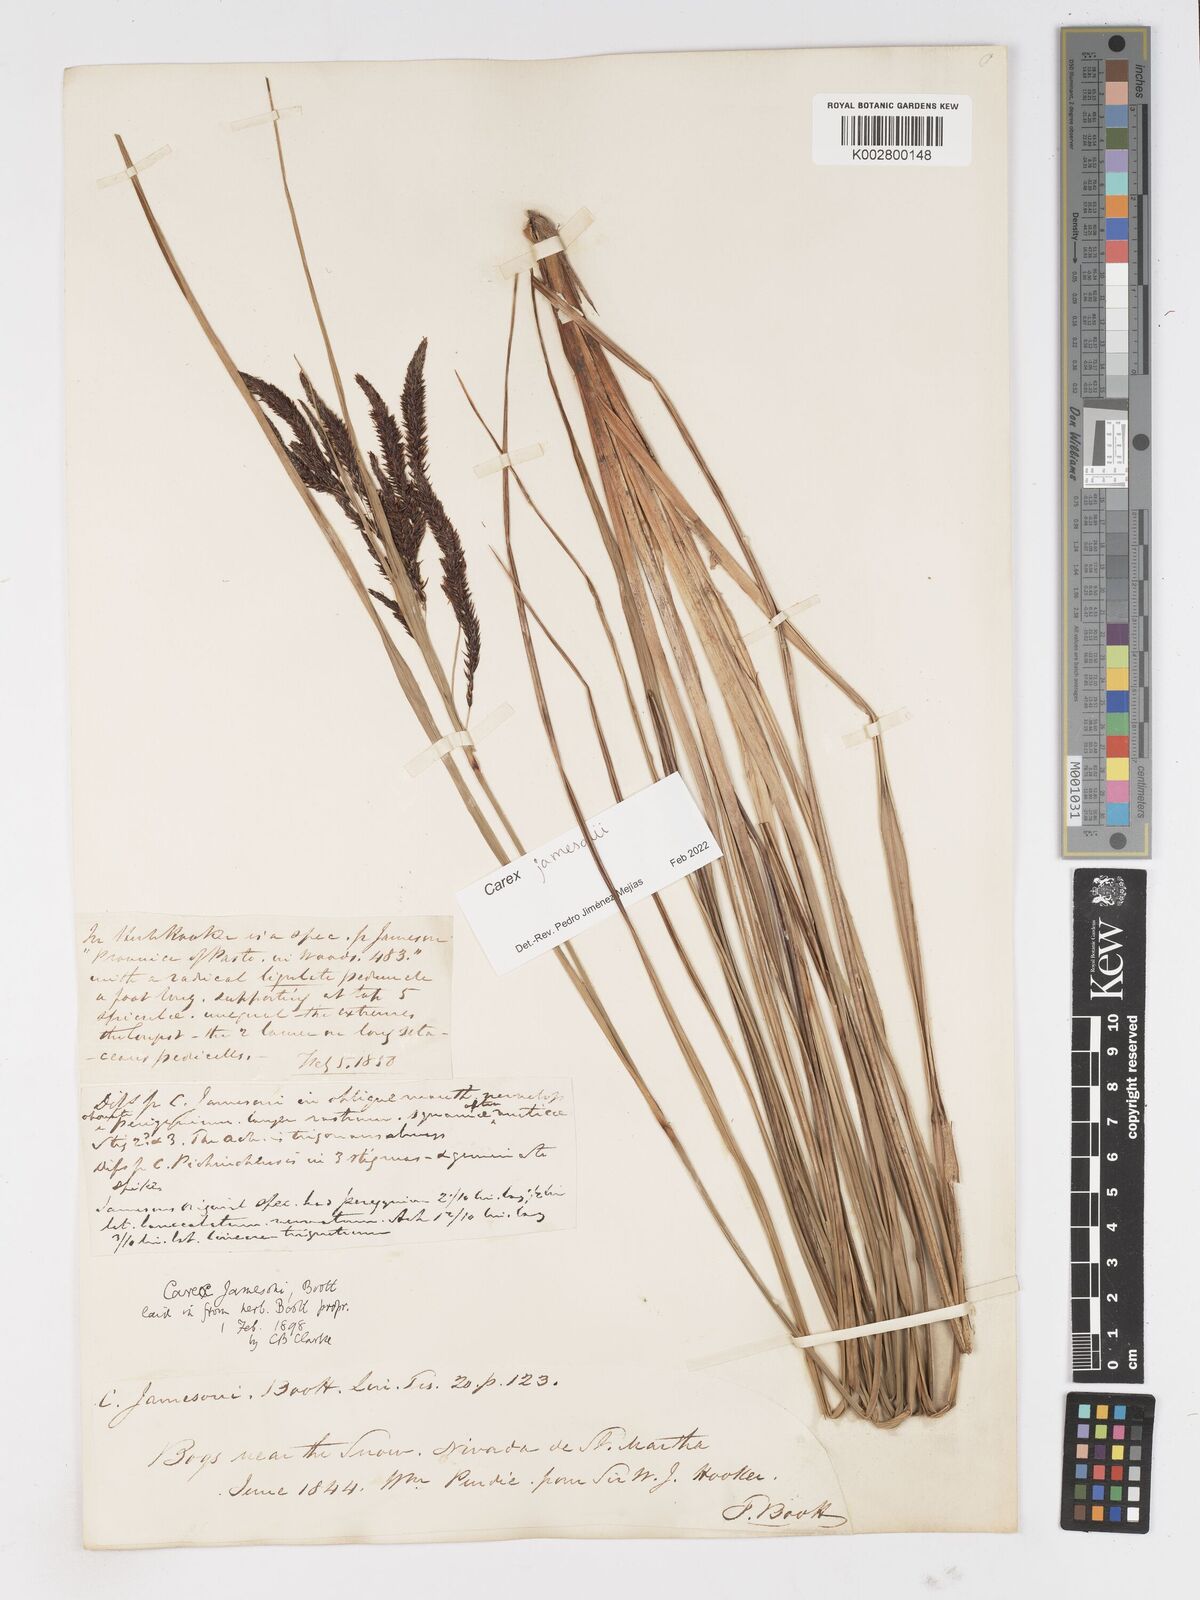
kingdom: Plantae
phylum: Tracheophyta
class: Liliopsida
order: Poales
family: Cyperaceae
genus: Carex
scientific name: Carex jamesonii
